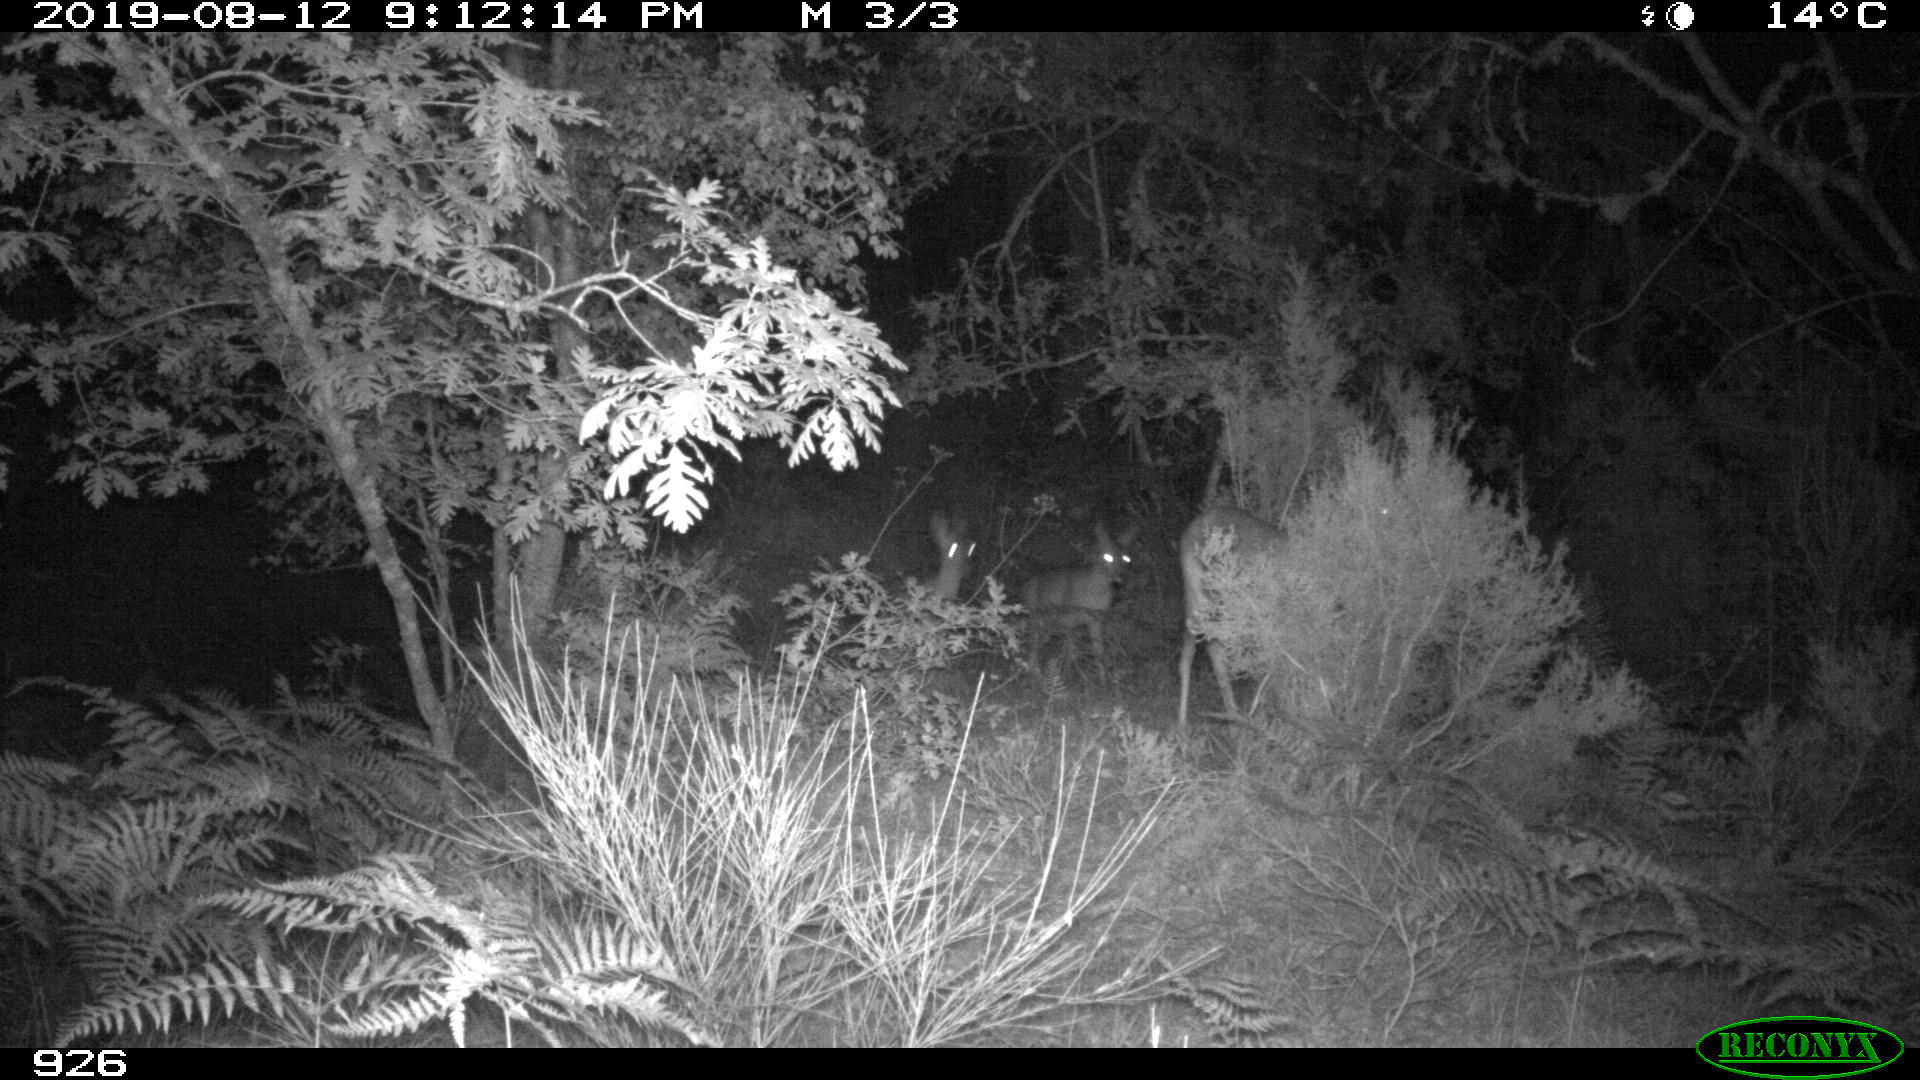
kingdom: Animalia
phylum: Chordata
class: Mammalia
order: Artiodactyla
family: Cervidae
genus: Capreolus
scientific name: Capreolus capreolus
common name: Western roe deer
